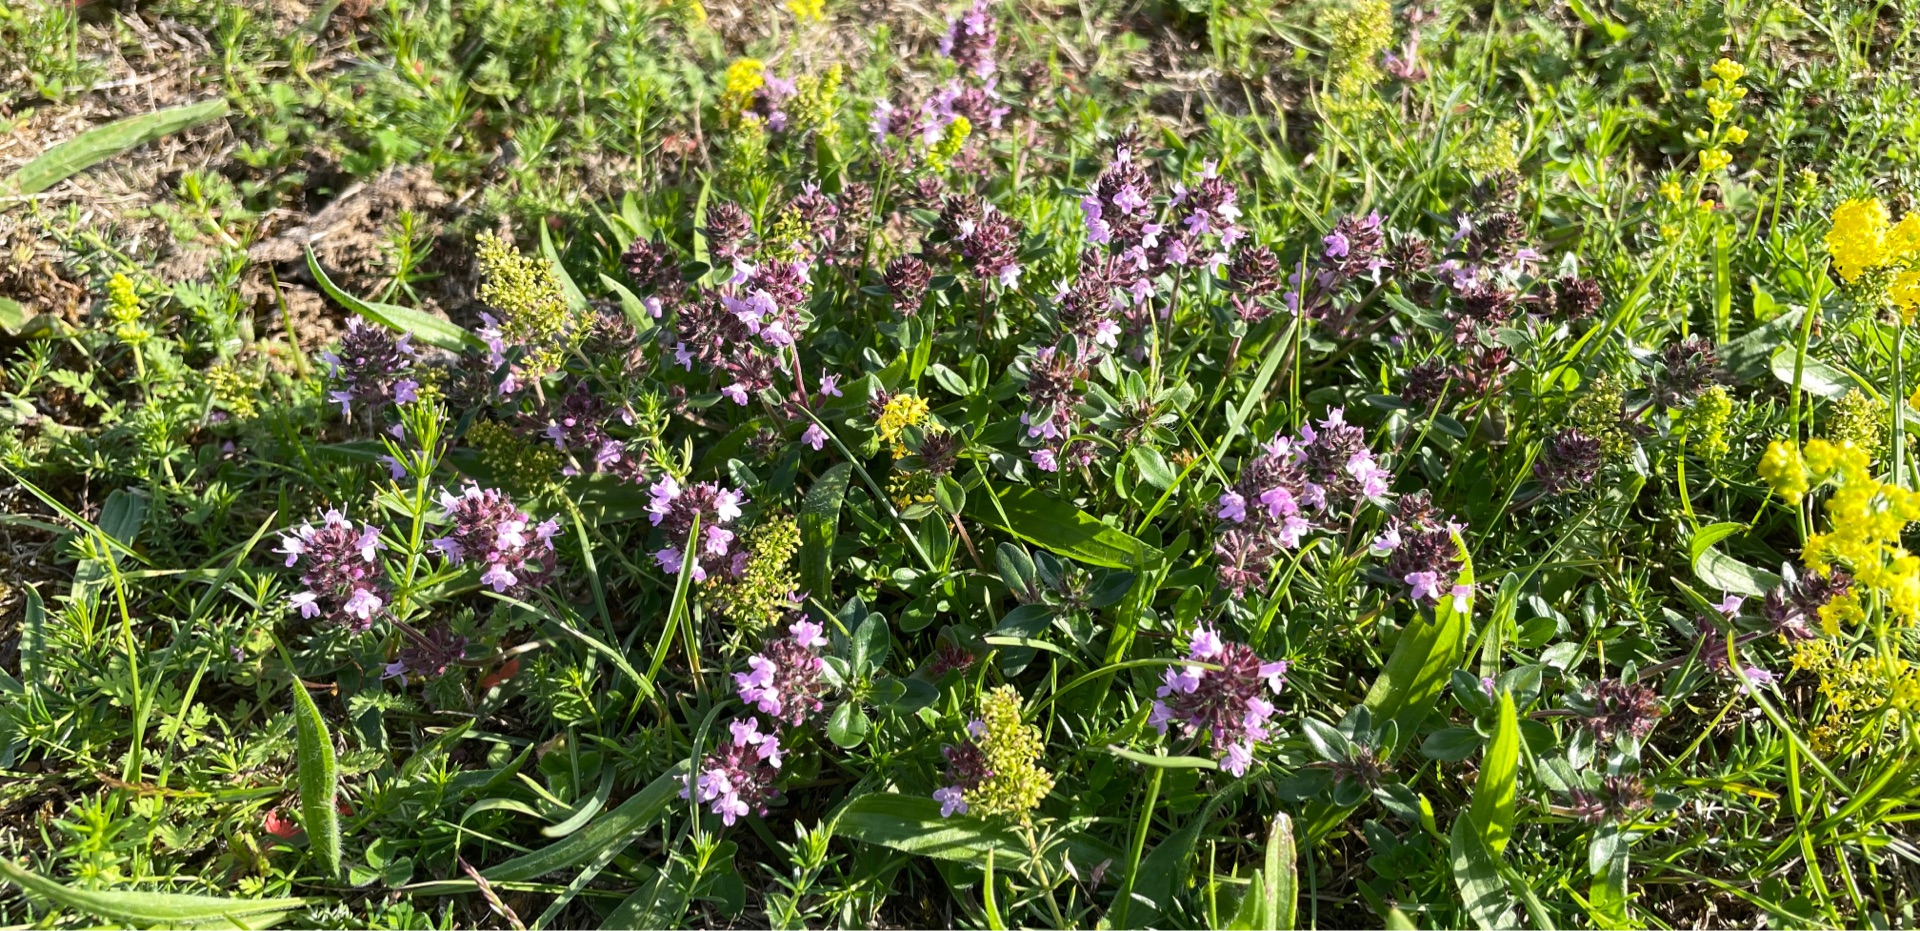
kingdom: Plantae
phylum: Tracheophyta
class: Magnoliopsida
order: Lamiales
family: Lamiaceae
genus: Thymus
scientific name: Thymus pulegioides
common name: Bredbladet timian
